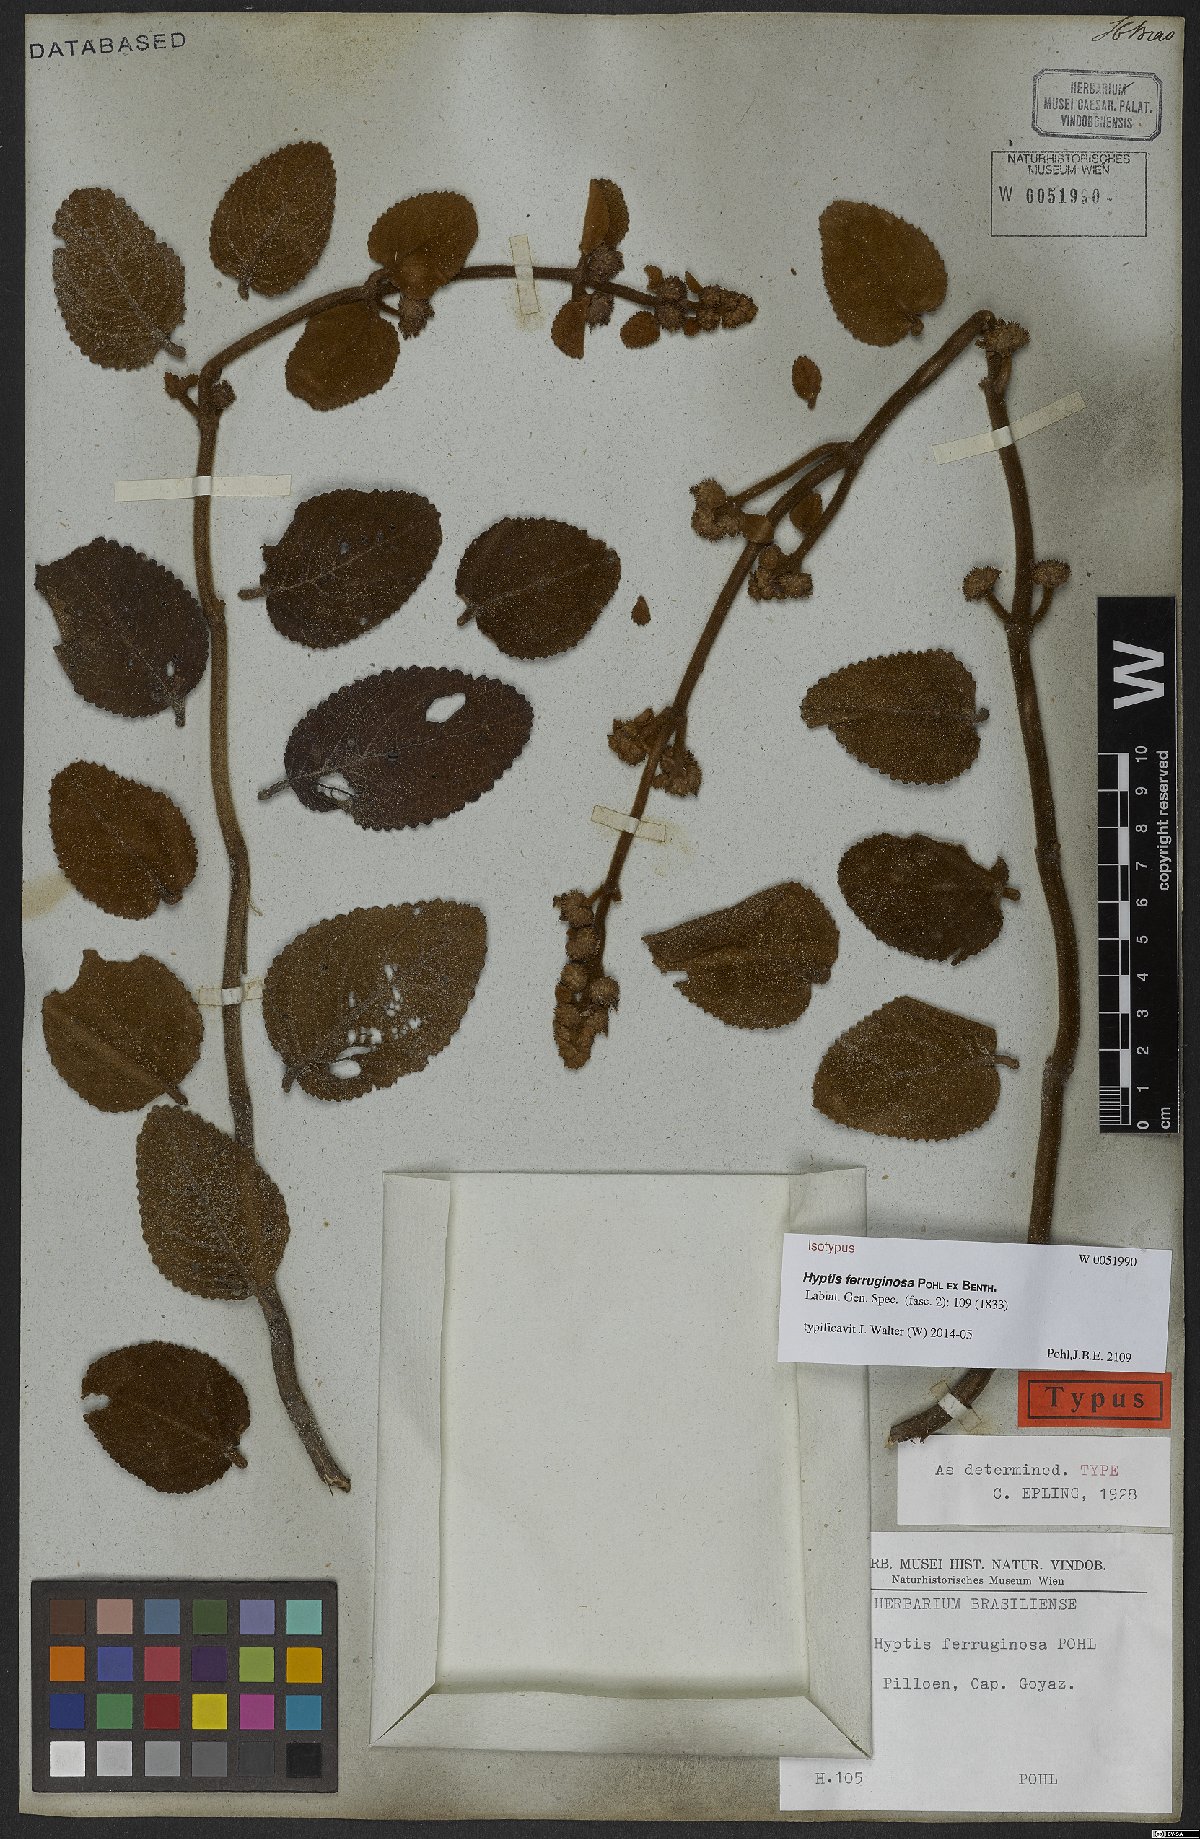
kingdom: Plantae
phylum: Tracheophyta
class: Magnoliopsida
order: Lamiales
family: Lamiaceae
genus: Hyptis
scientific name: Hyptis ferruginosa
